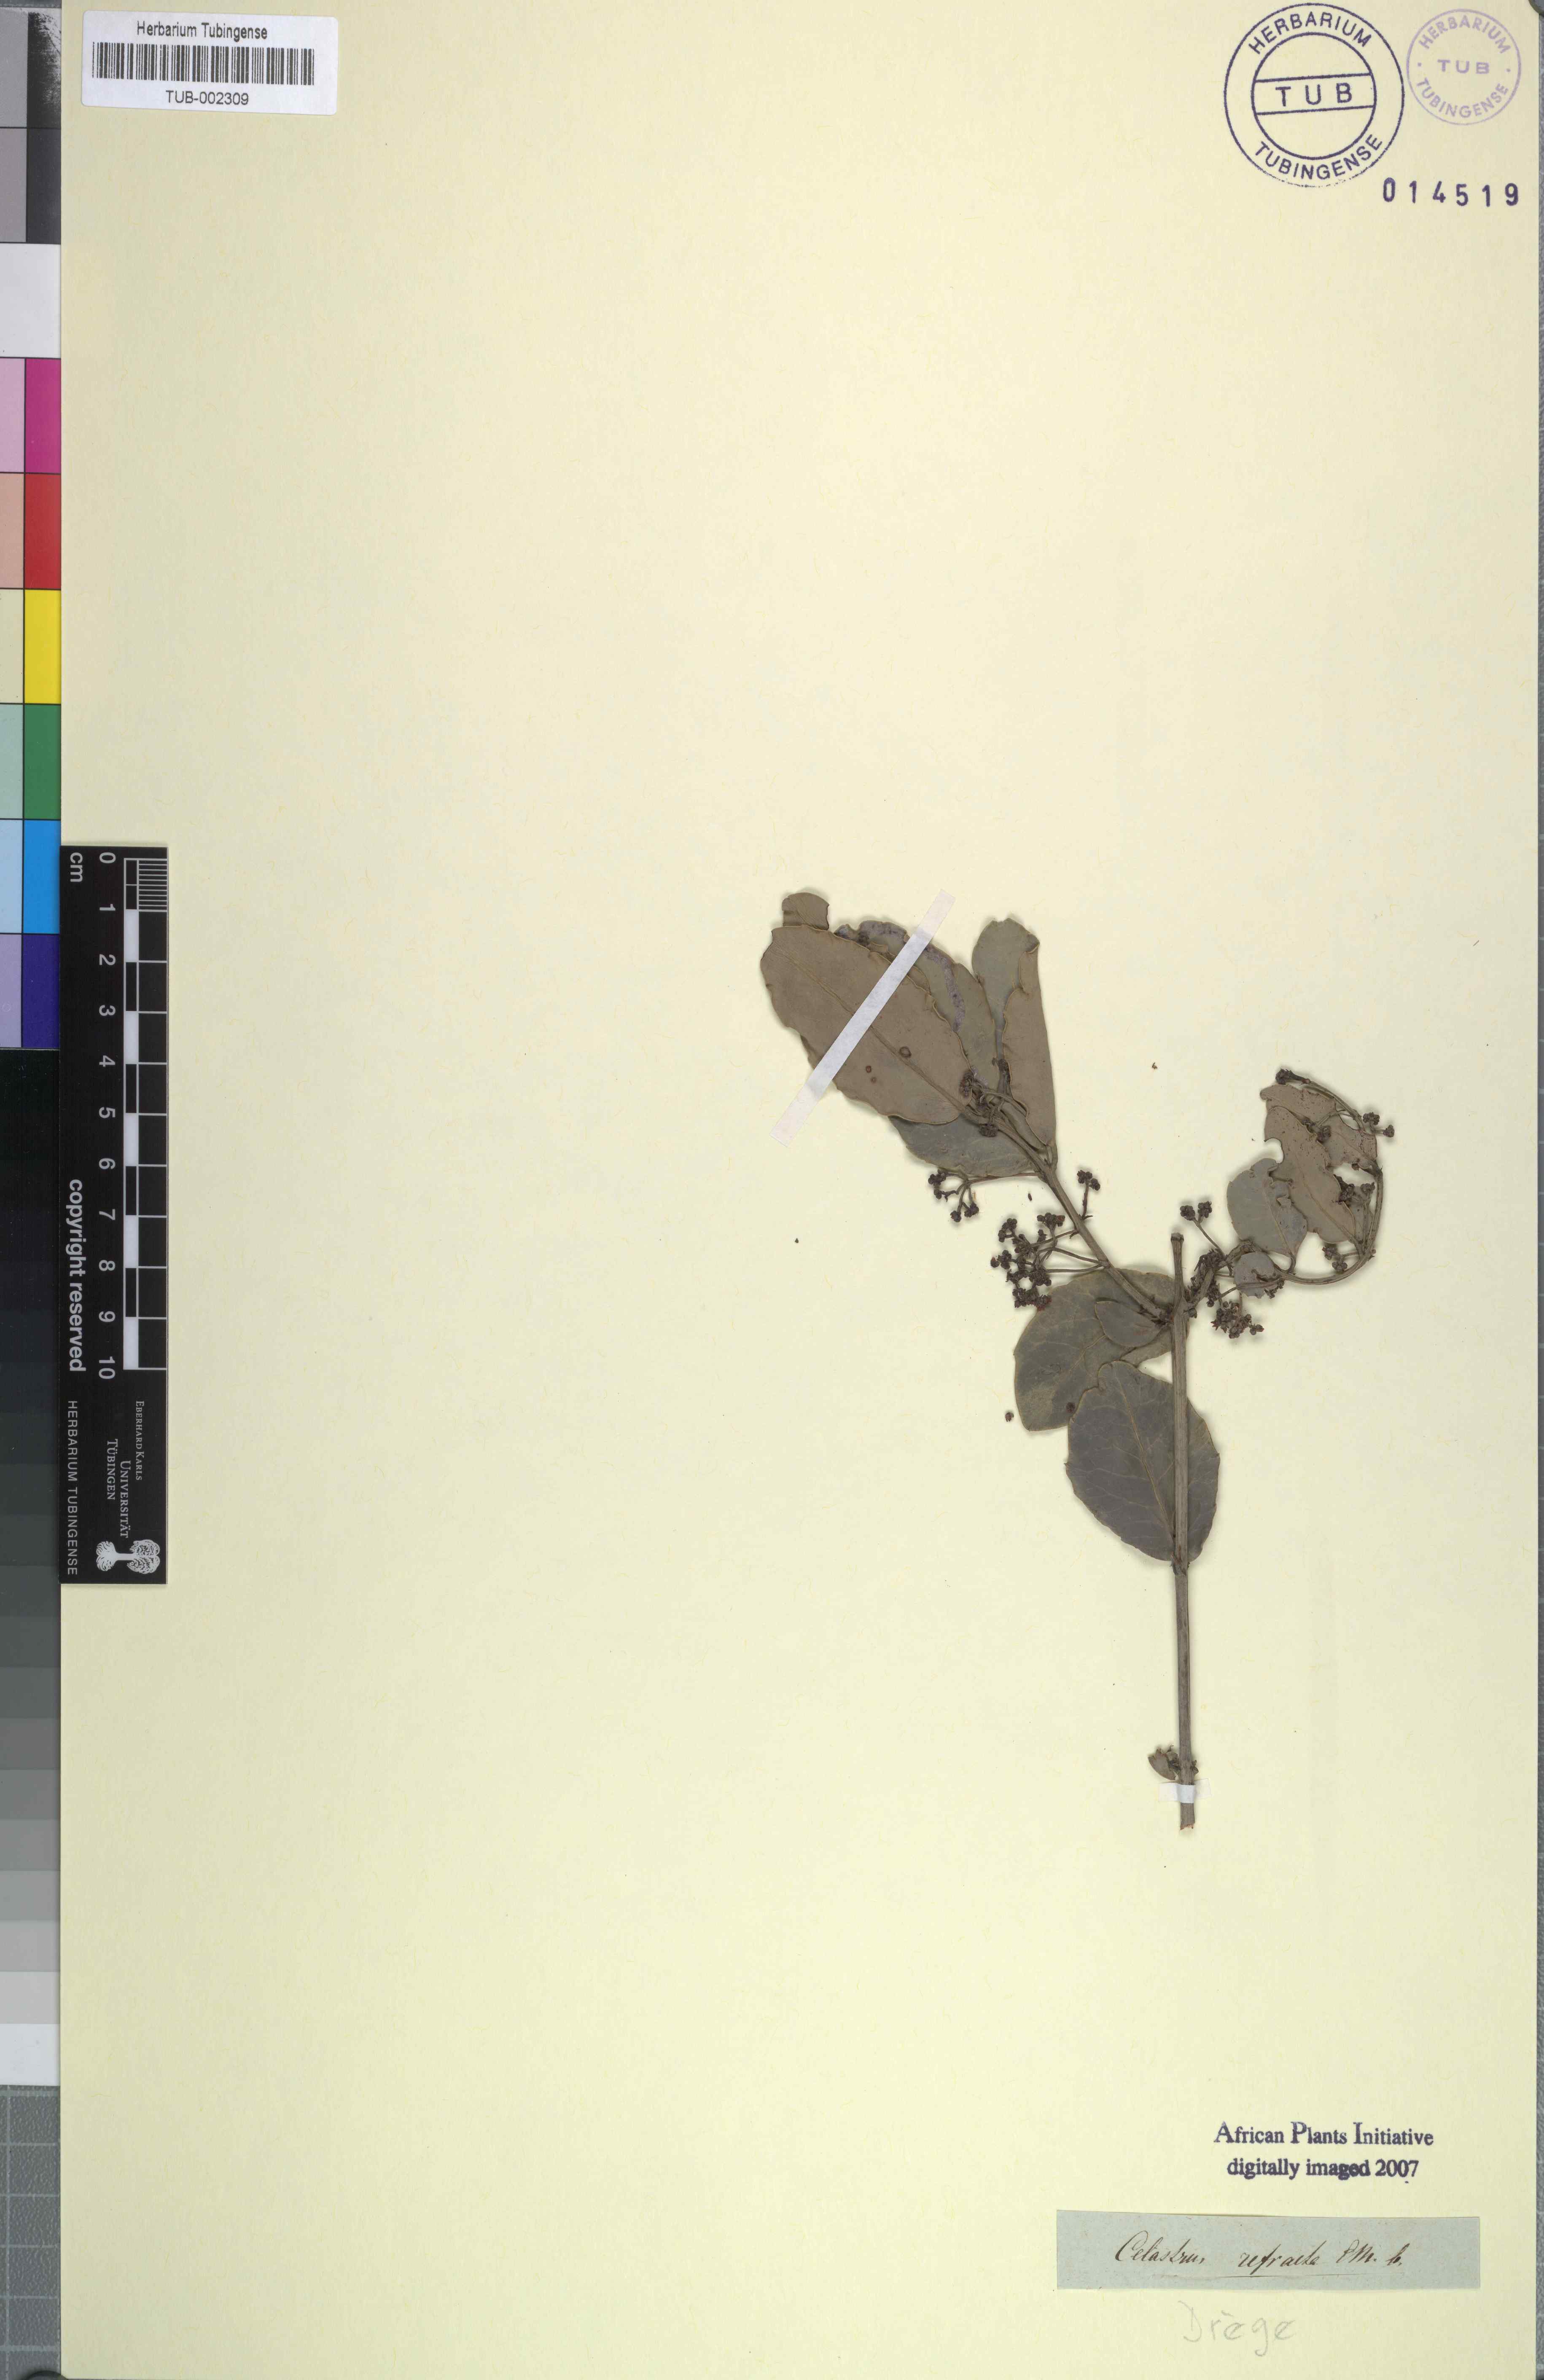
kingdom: Plantae
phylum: Tracheophyta
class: Magnoliopsida
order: Celastrales
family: Celastraceae
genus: Lauridia
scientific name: Lauridia tetragona
